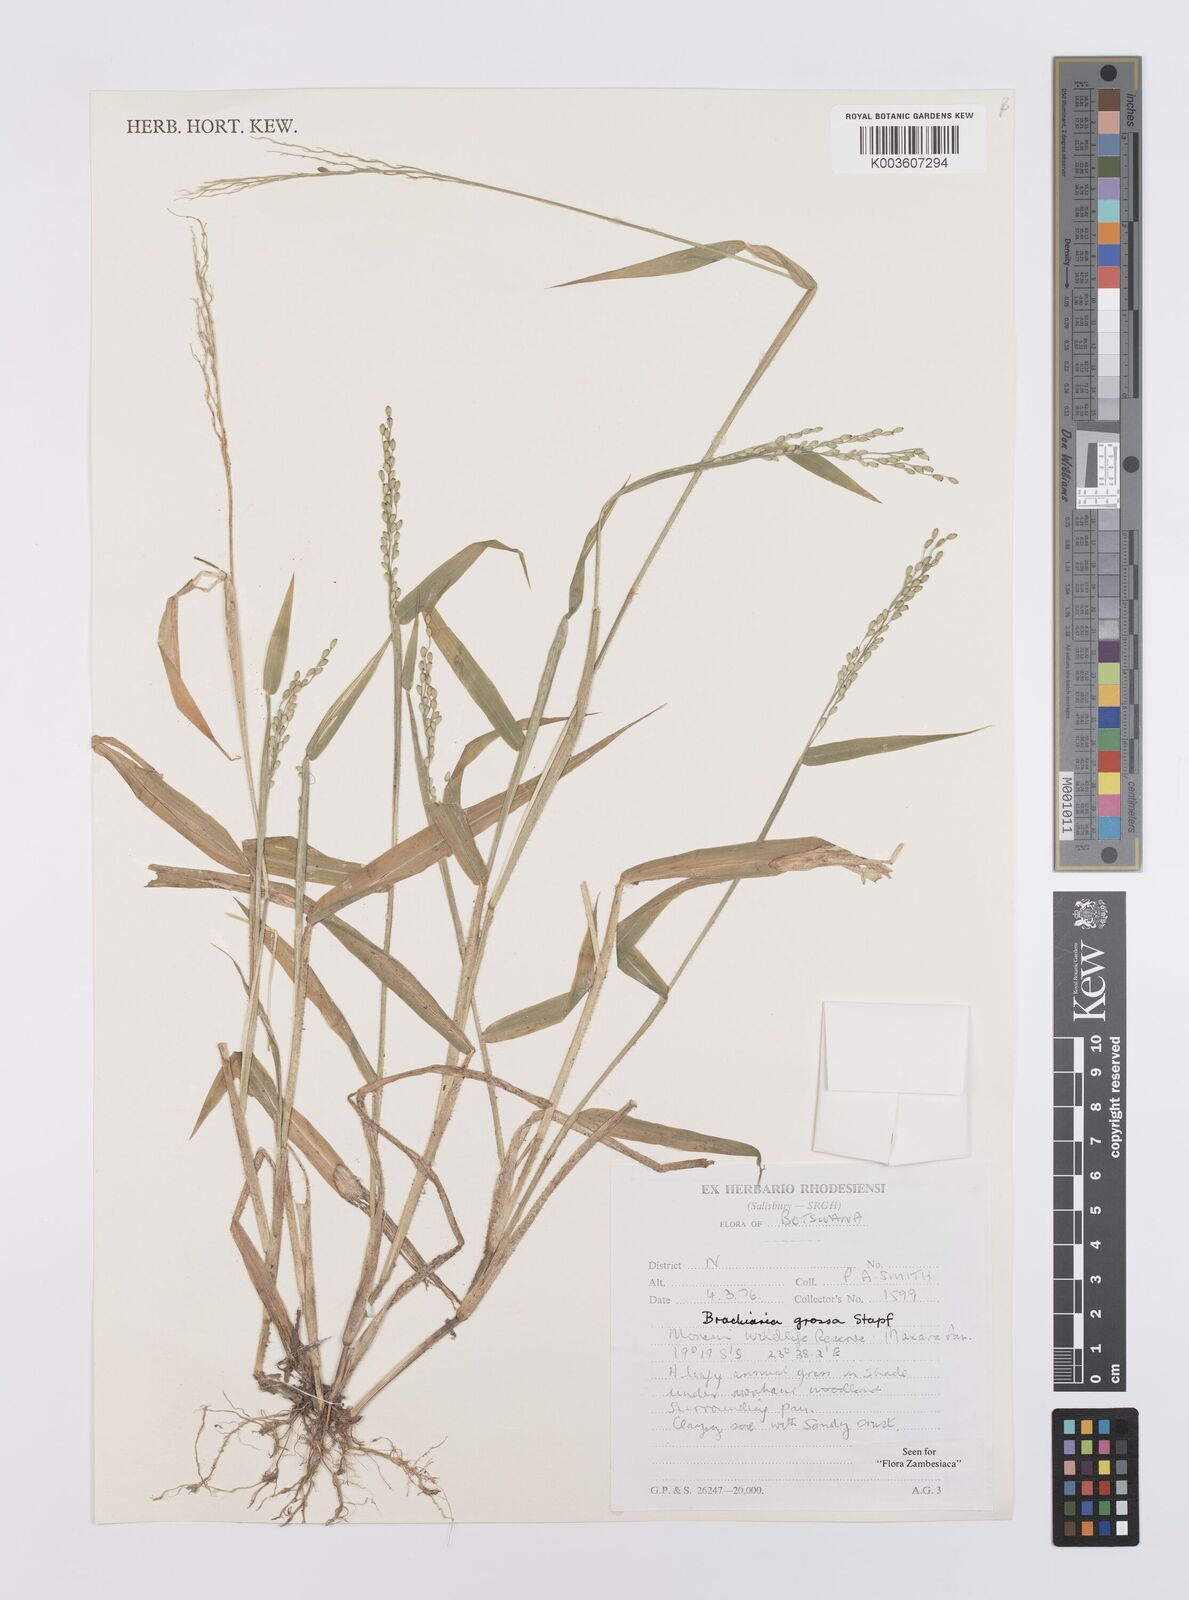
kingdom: Plantae
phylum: Tracheophyta
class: Liliopsida
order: Poales
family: Poaceae
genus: Urochloa
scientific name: Urochloa Brachiaria grossa
